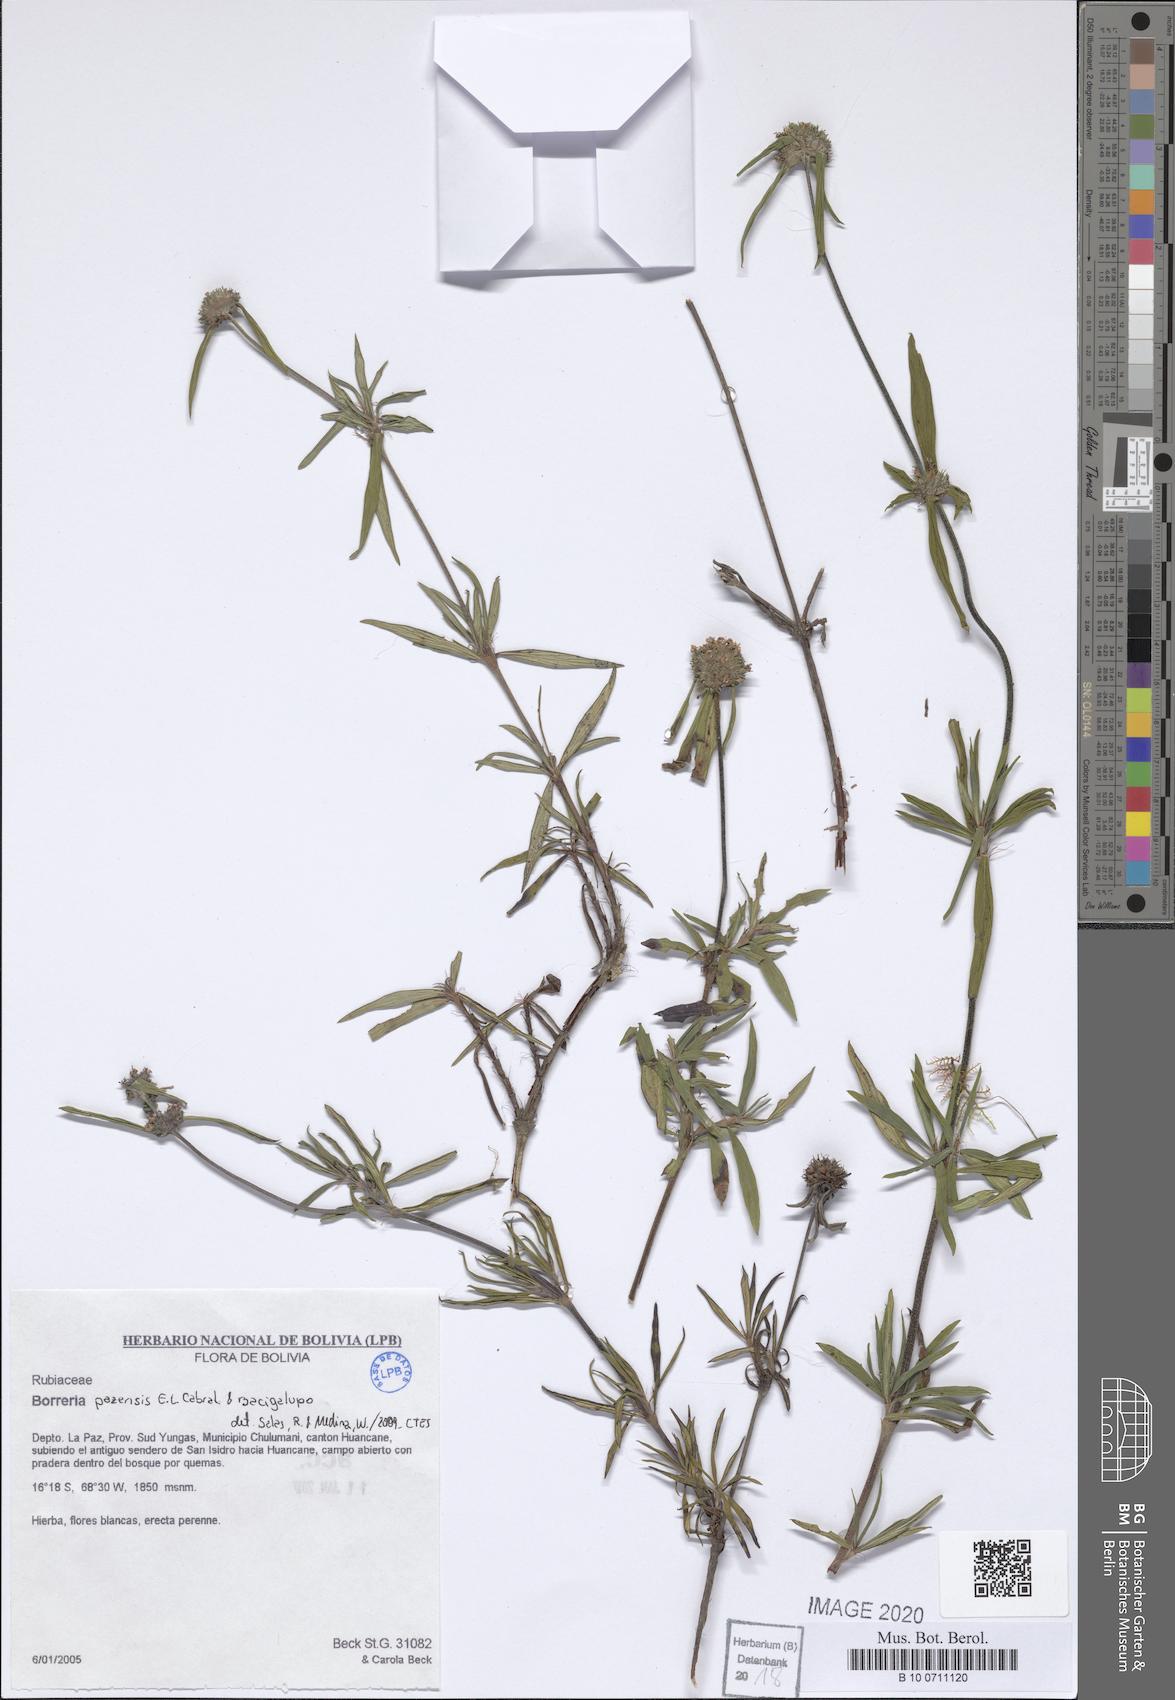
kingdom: Plantae
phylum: Tracheophyta
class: Magnoliopsida
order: Gentianales
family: Rubiaceae
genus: Spermacoce
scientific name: Spermacoce paraensis
